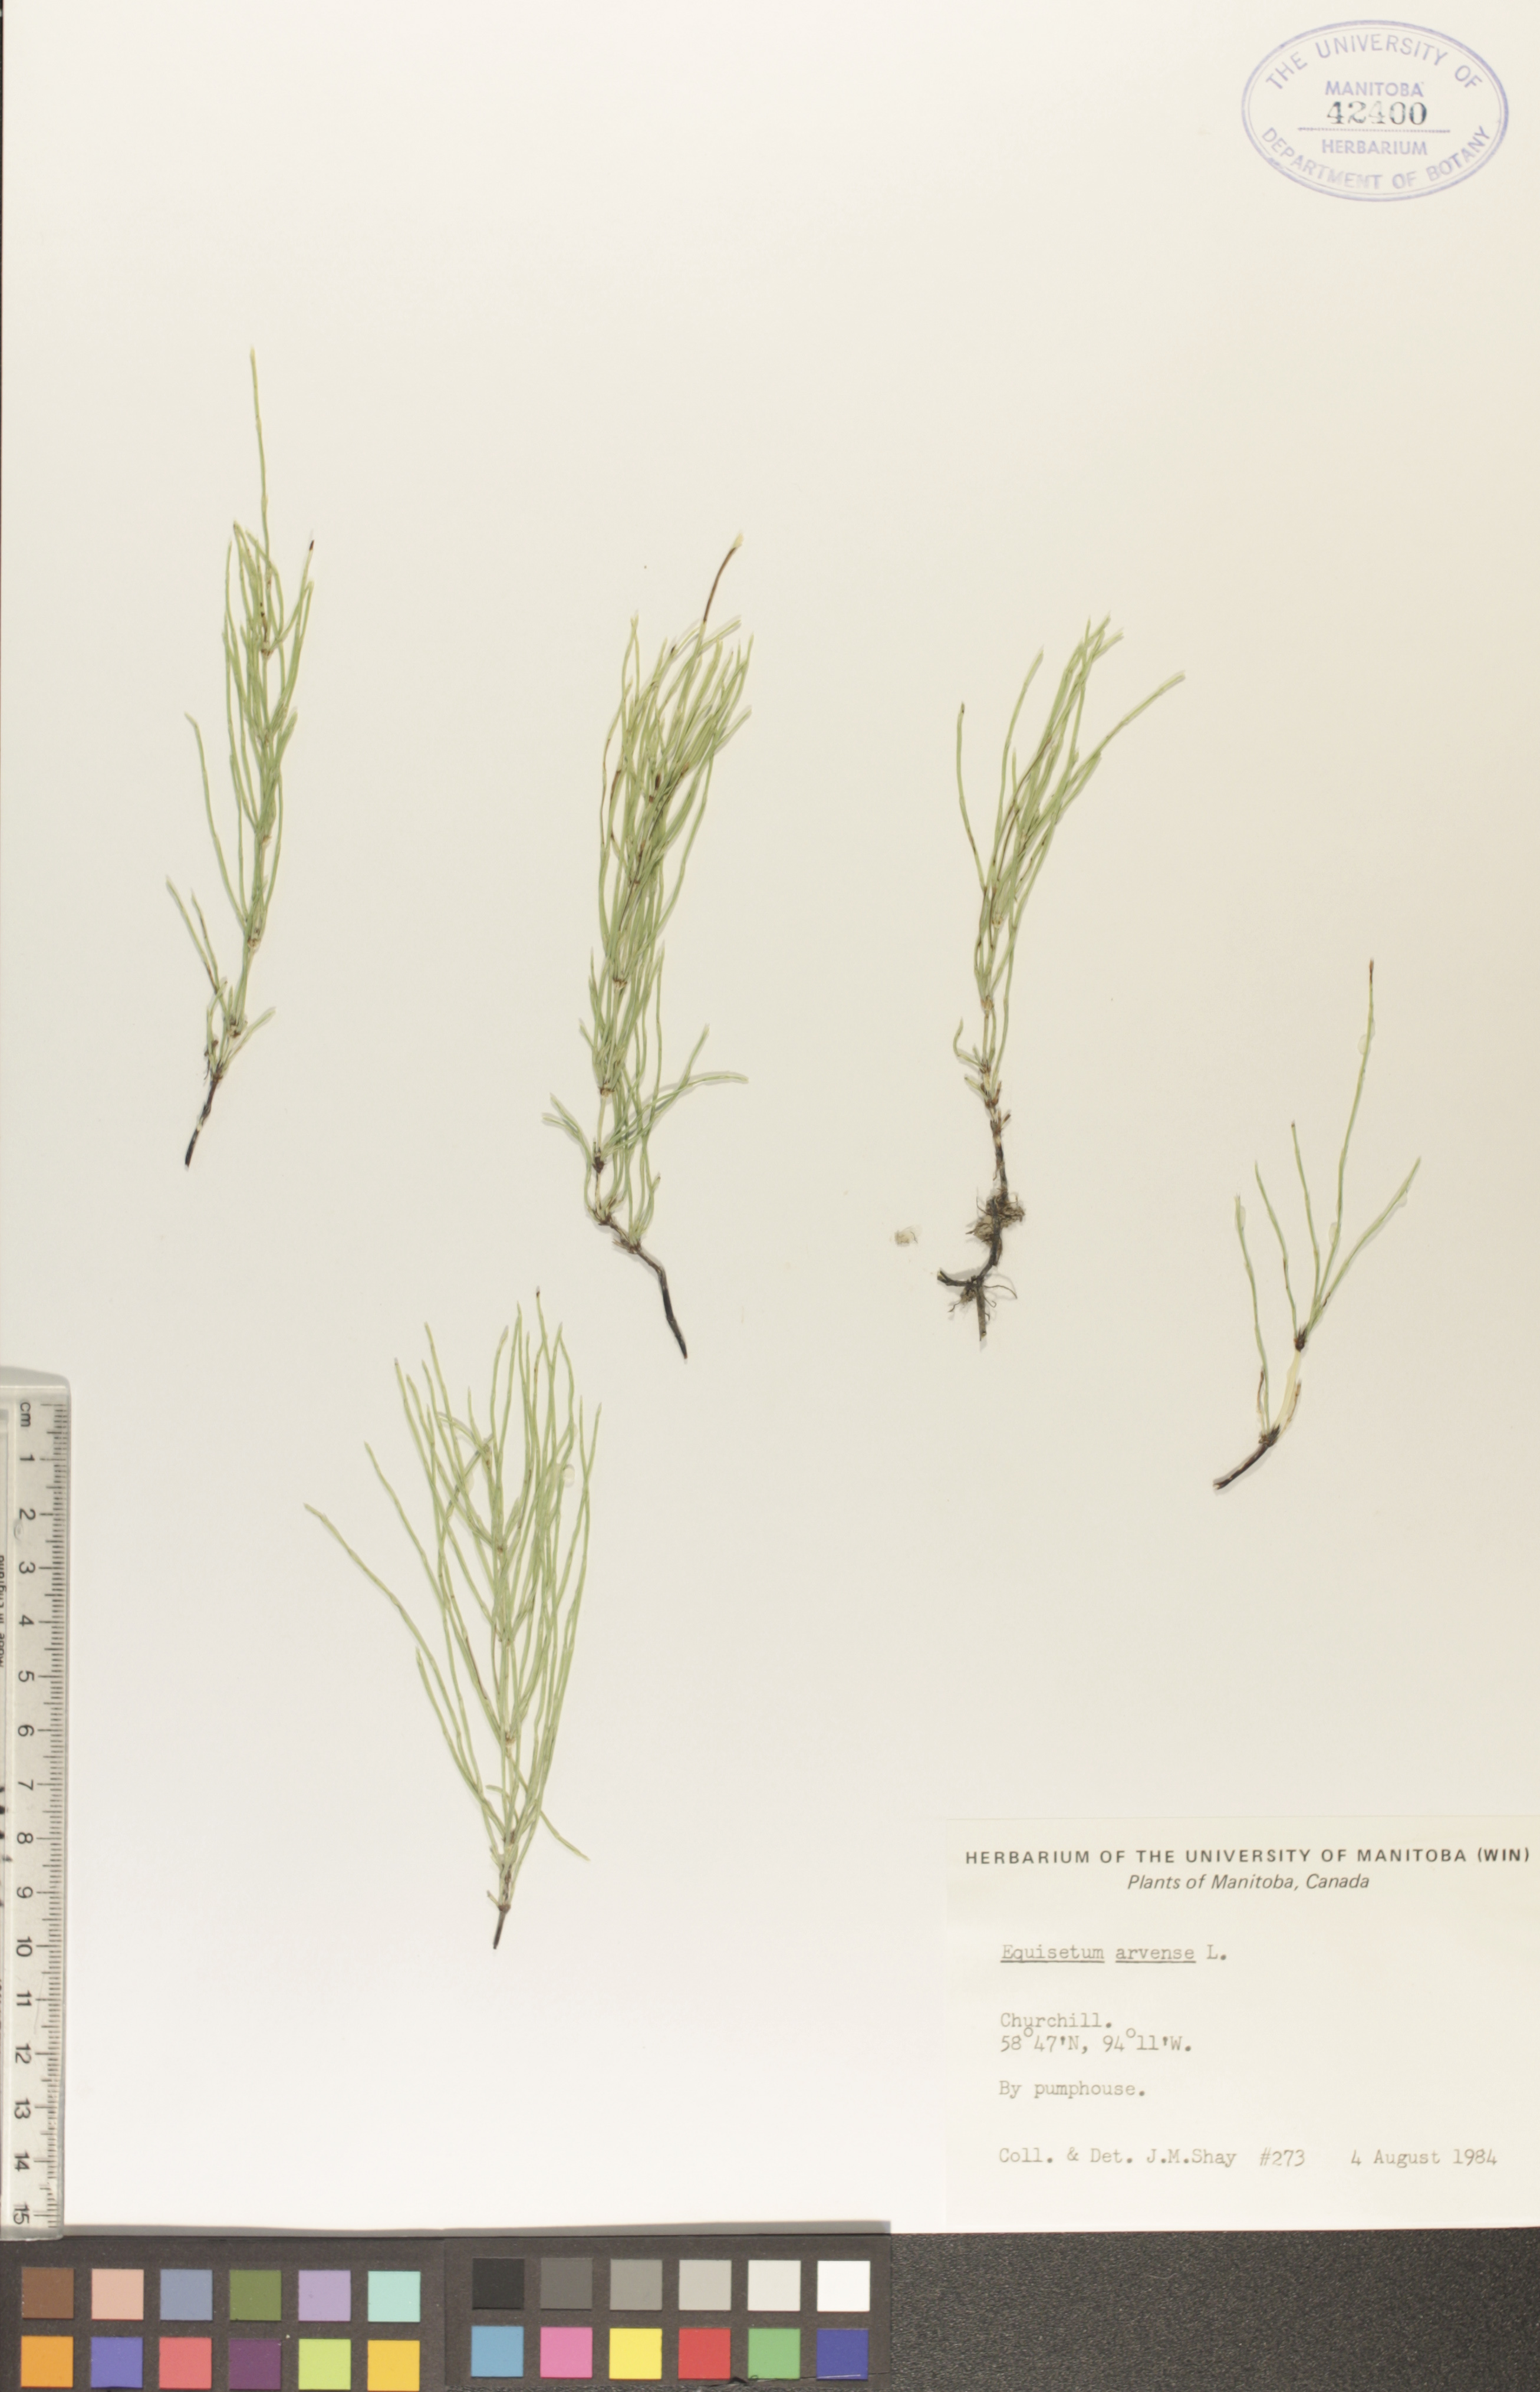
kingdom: Plantae
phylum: Tracheophyta
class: Polypodiopsida
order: Equisetales
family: Equisetaceae
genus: Equisetum
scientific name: Equisetum arvense
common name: Field horsetail
